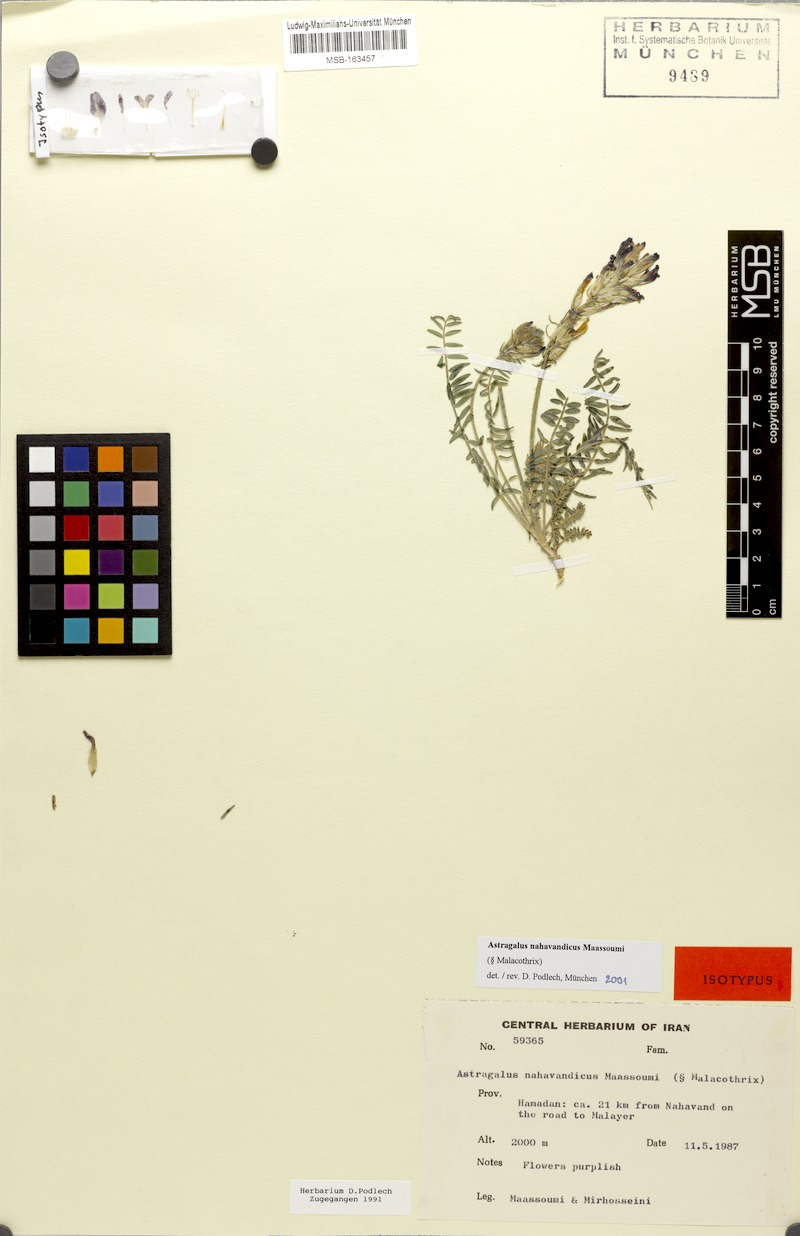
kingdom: Plantae
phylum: Tracheophyta
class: Magnoliopsida
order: Fabales
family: Fabaceae
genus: Astragalus
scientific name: Astragalus nahavandicus
